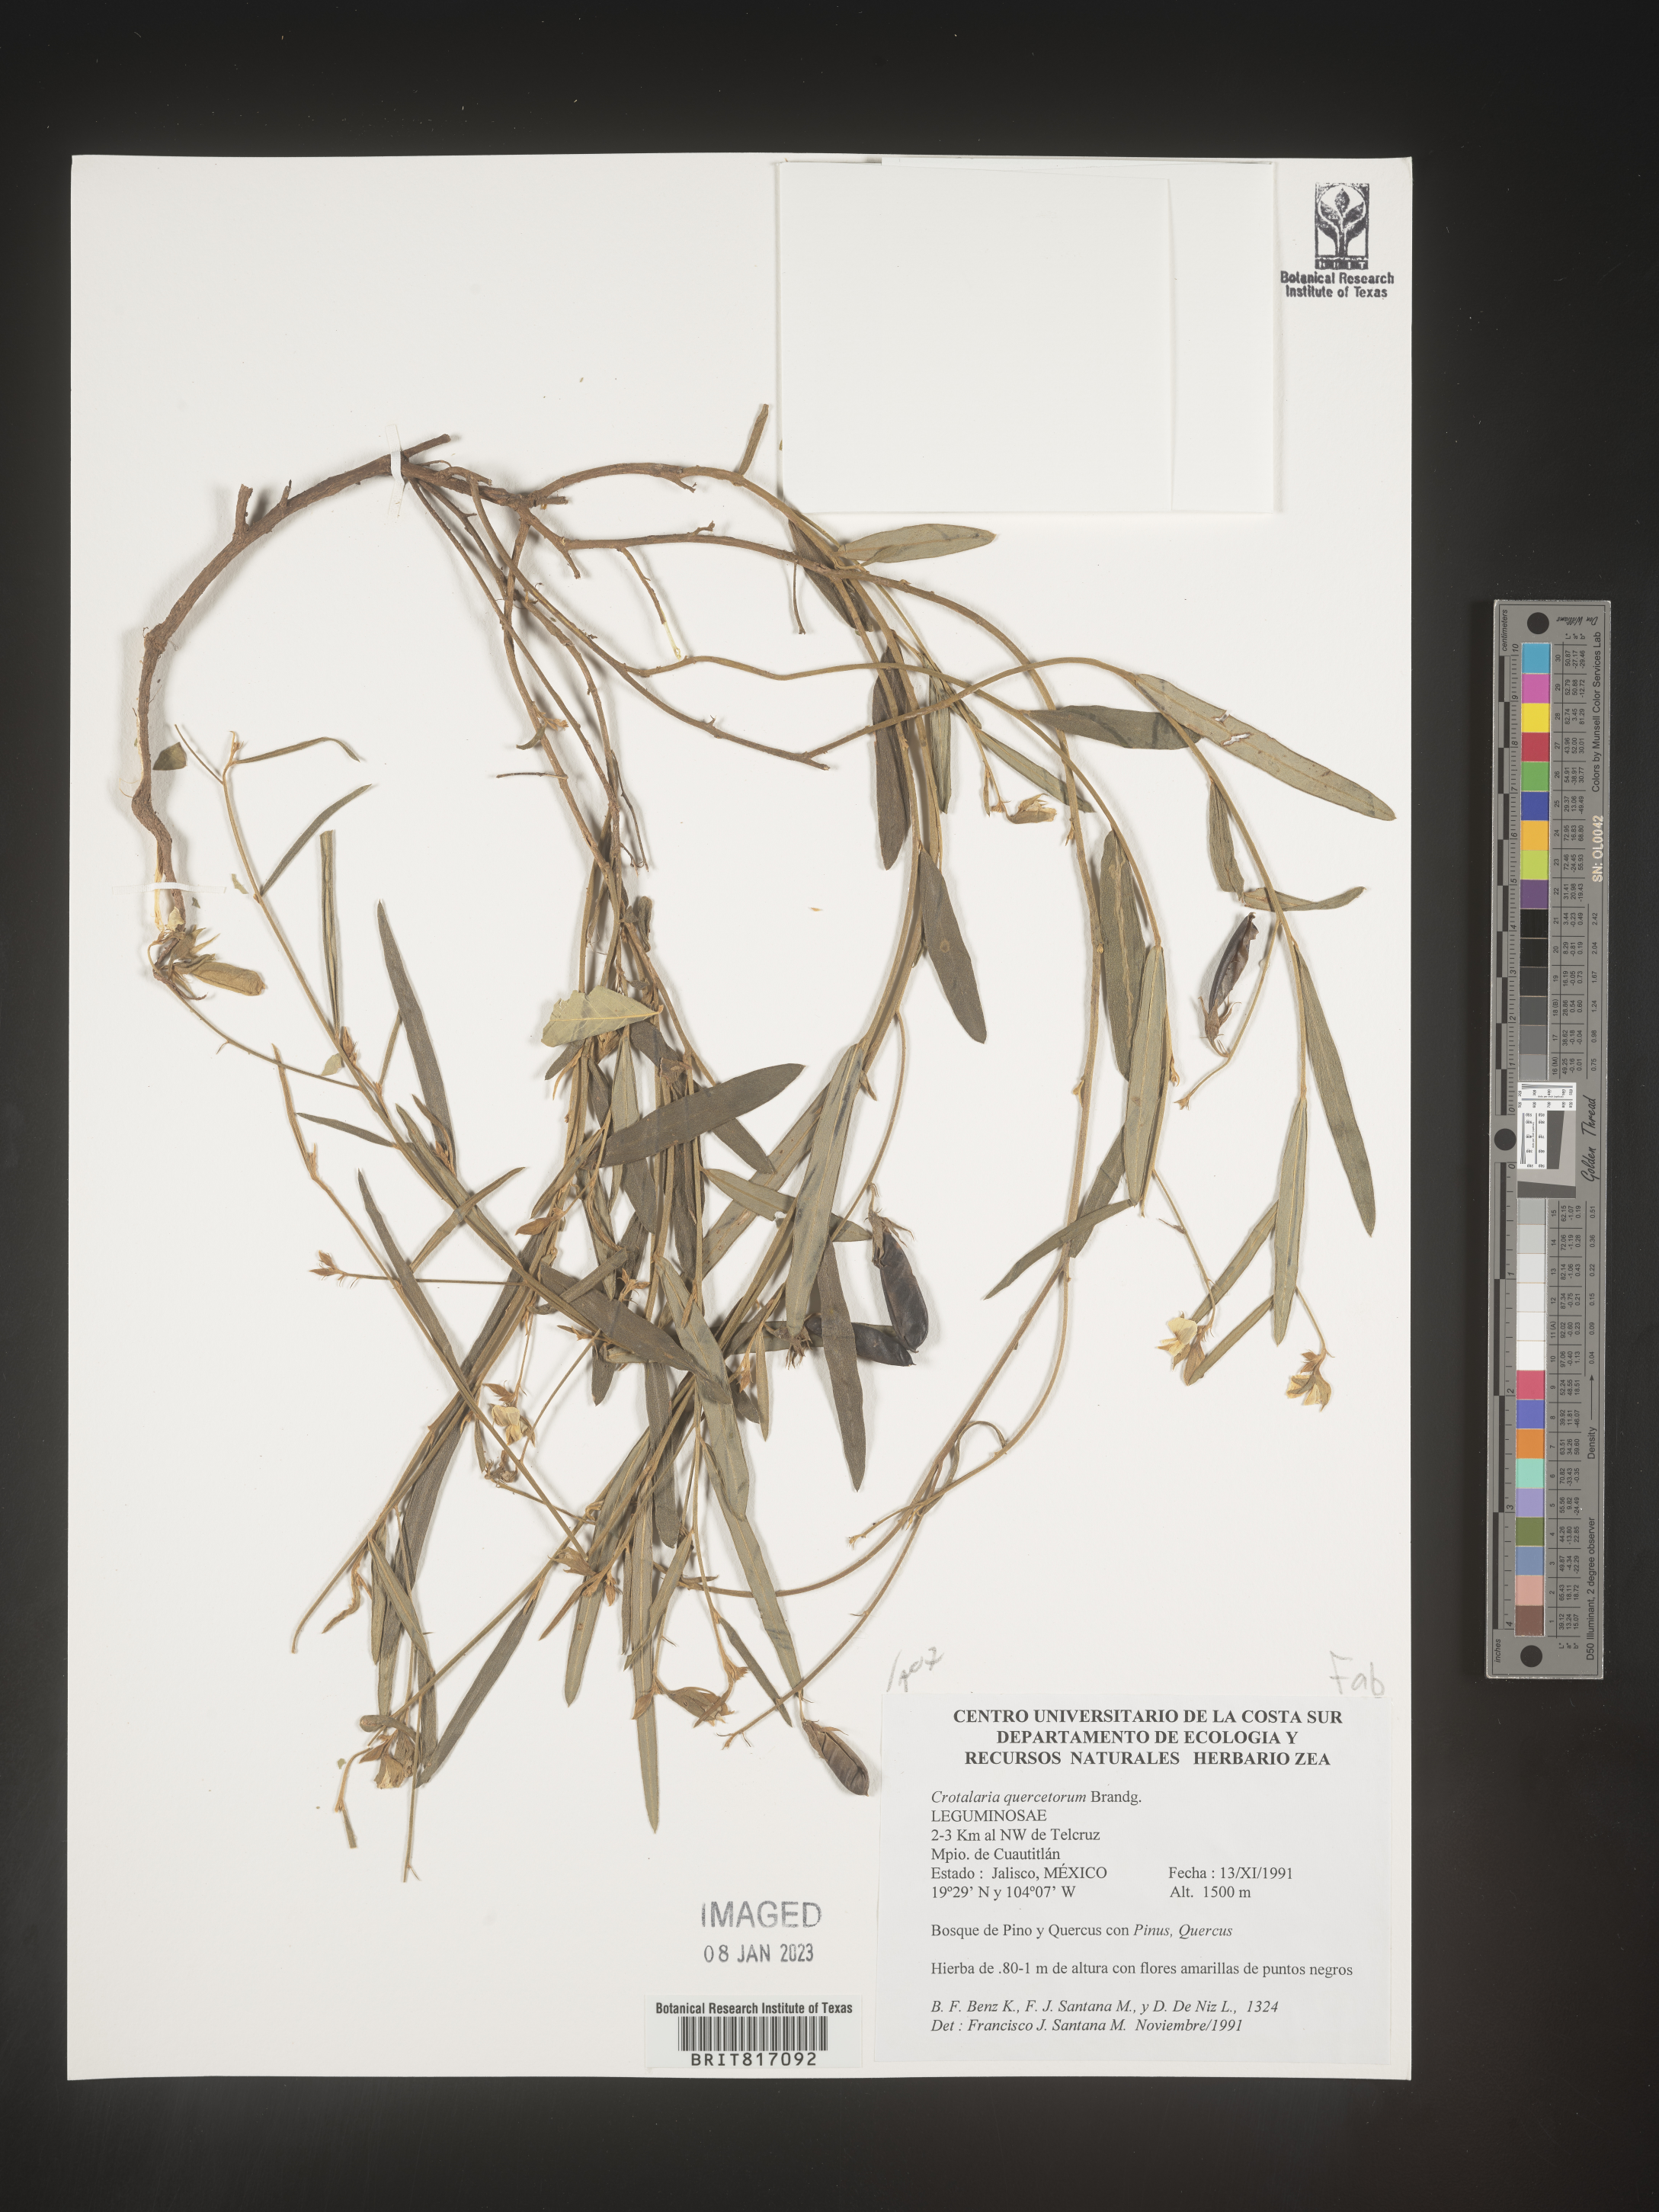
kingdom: Plantae
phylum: Tracheophyta
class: Magnoliopsida
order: Fabales
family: Fabaceae
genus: Crotalaria
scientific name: Crotalaria
